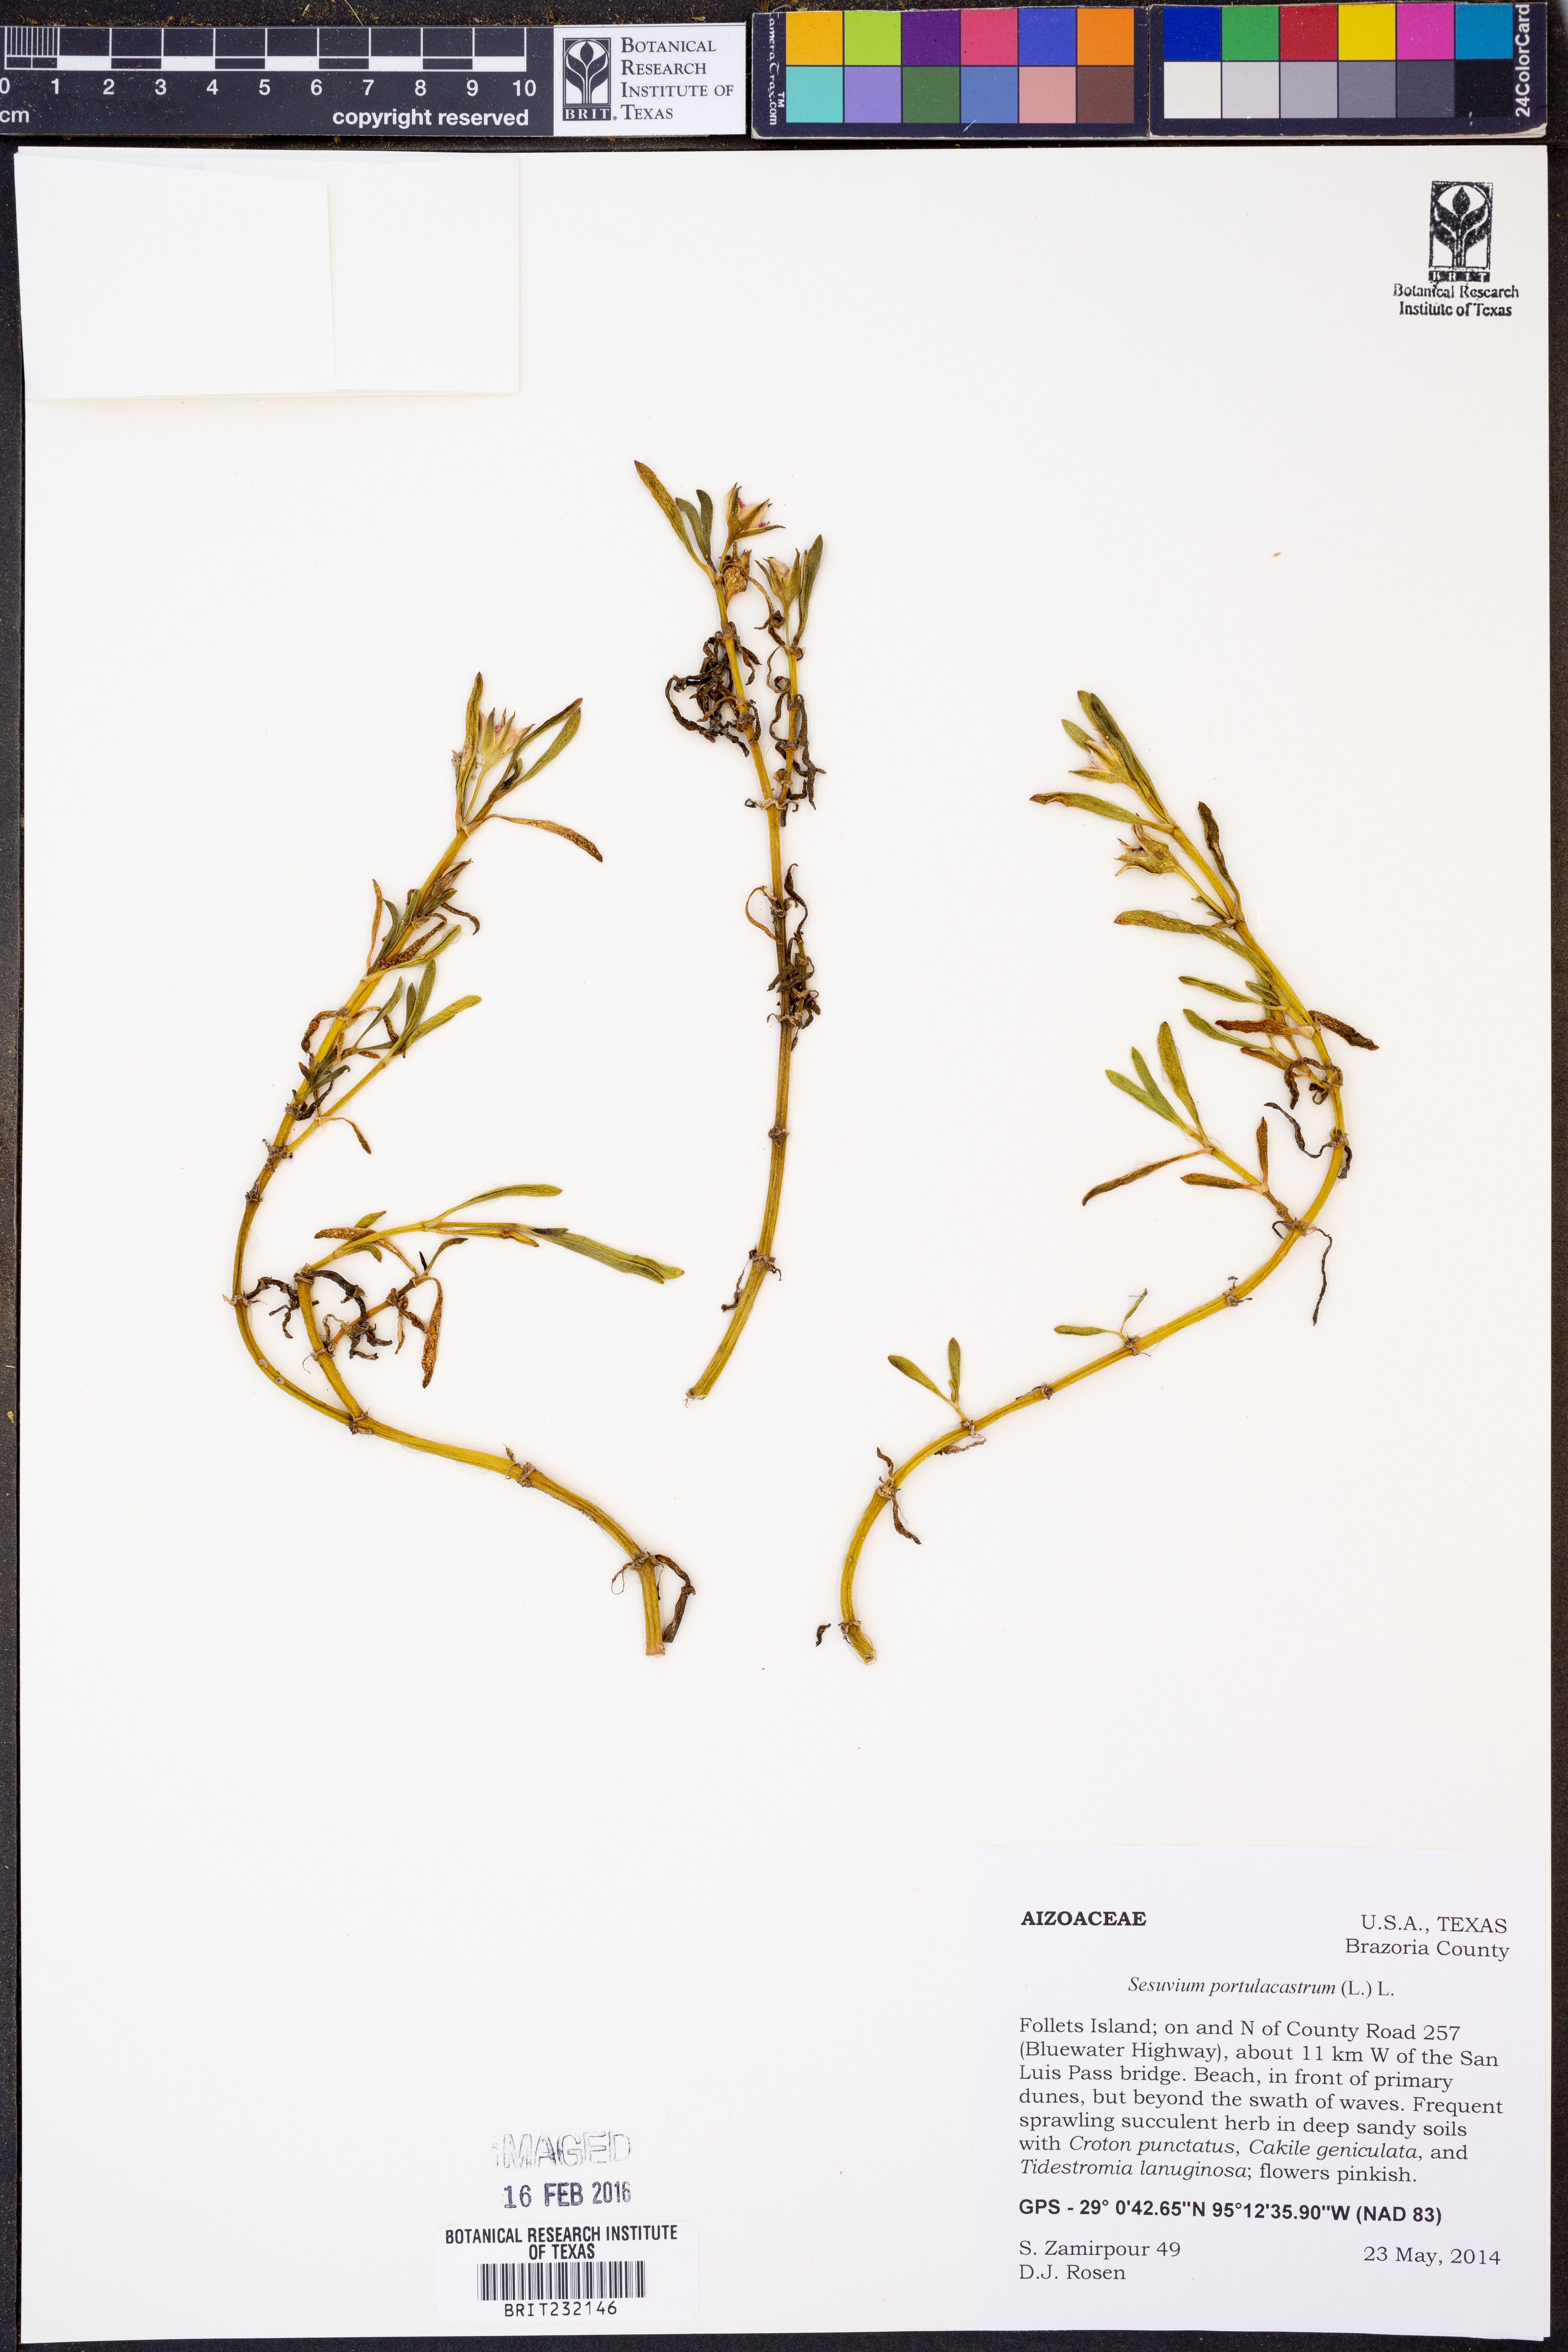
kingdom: Plantae
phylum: Tracheophyta
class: Magnoliopsida
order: Caryophyllales
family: Aizoaceae
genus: Sesuvium
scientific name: Sesuvium portulacastrum
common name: Sea-purslane
